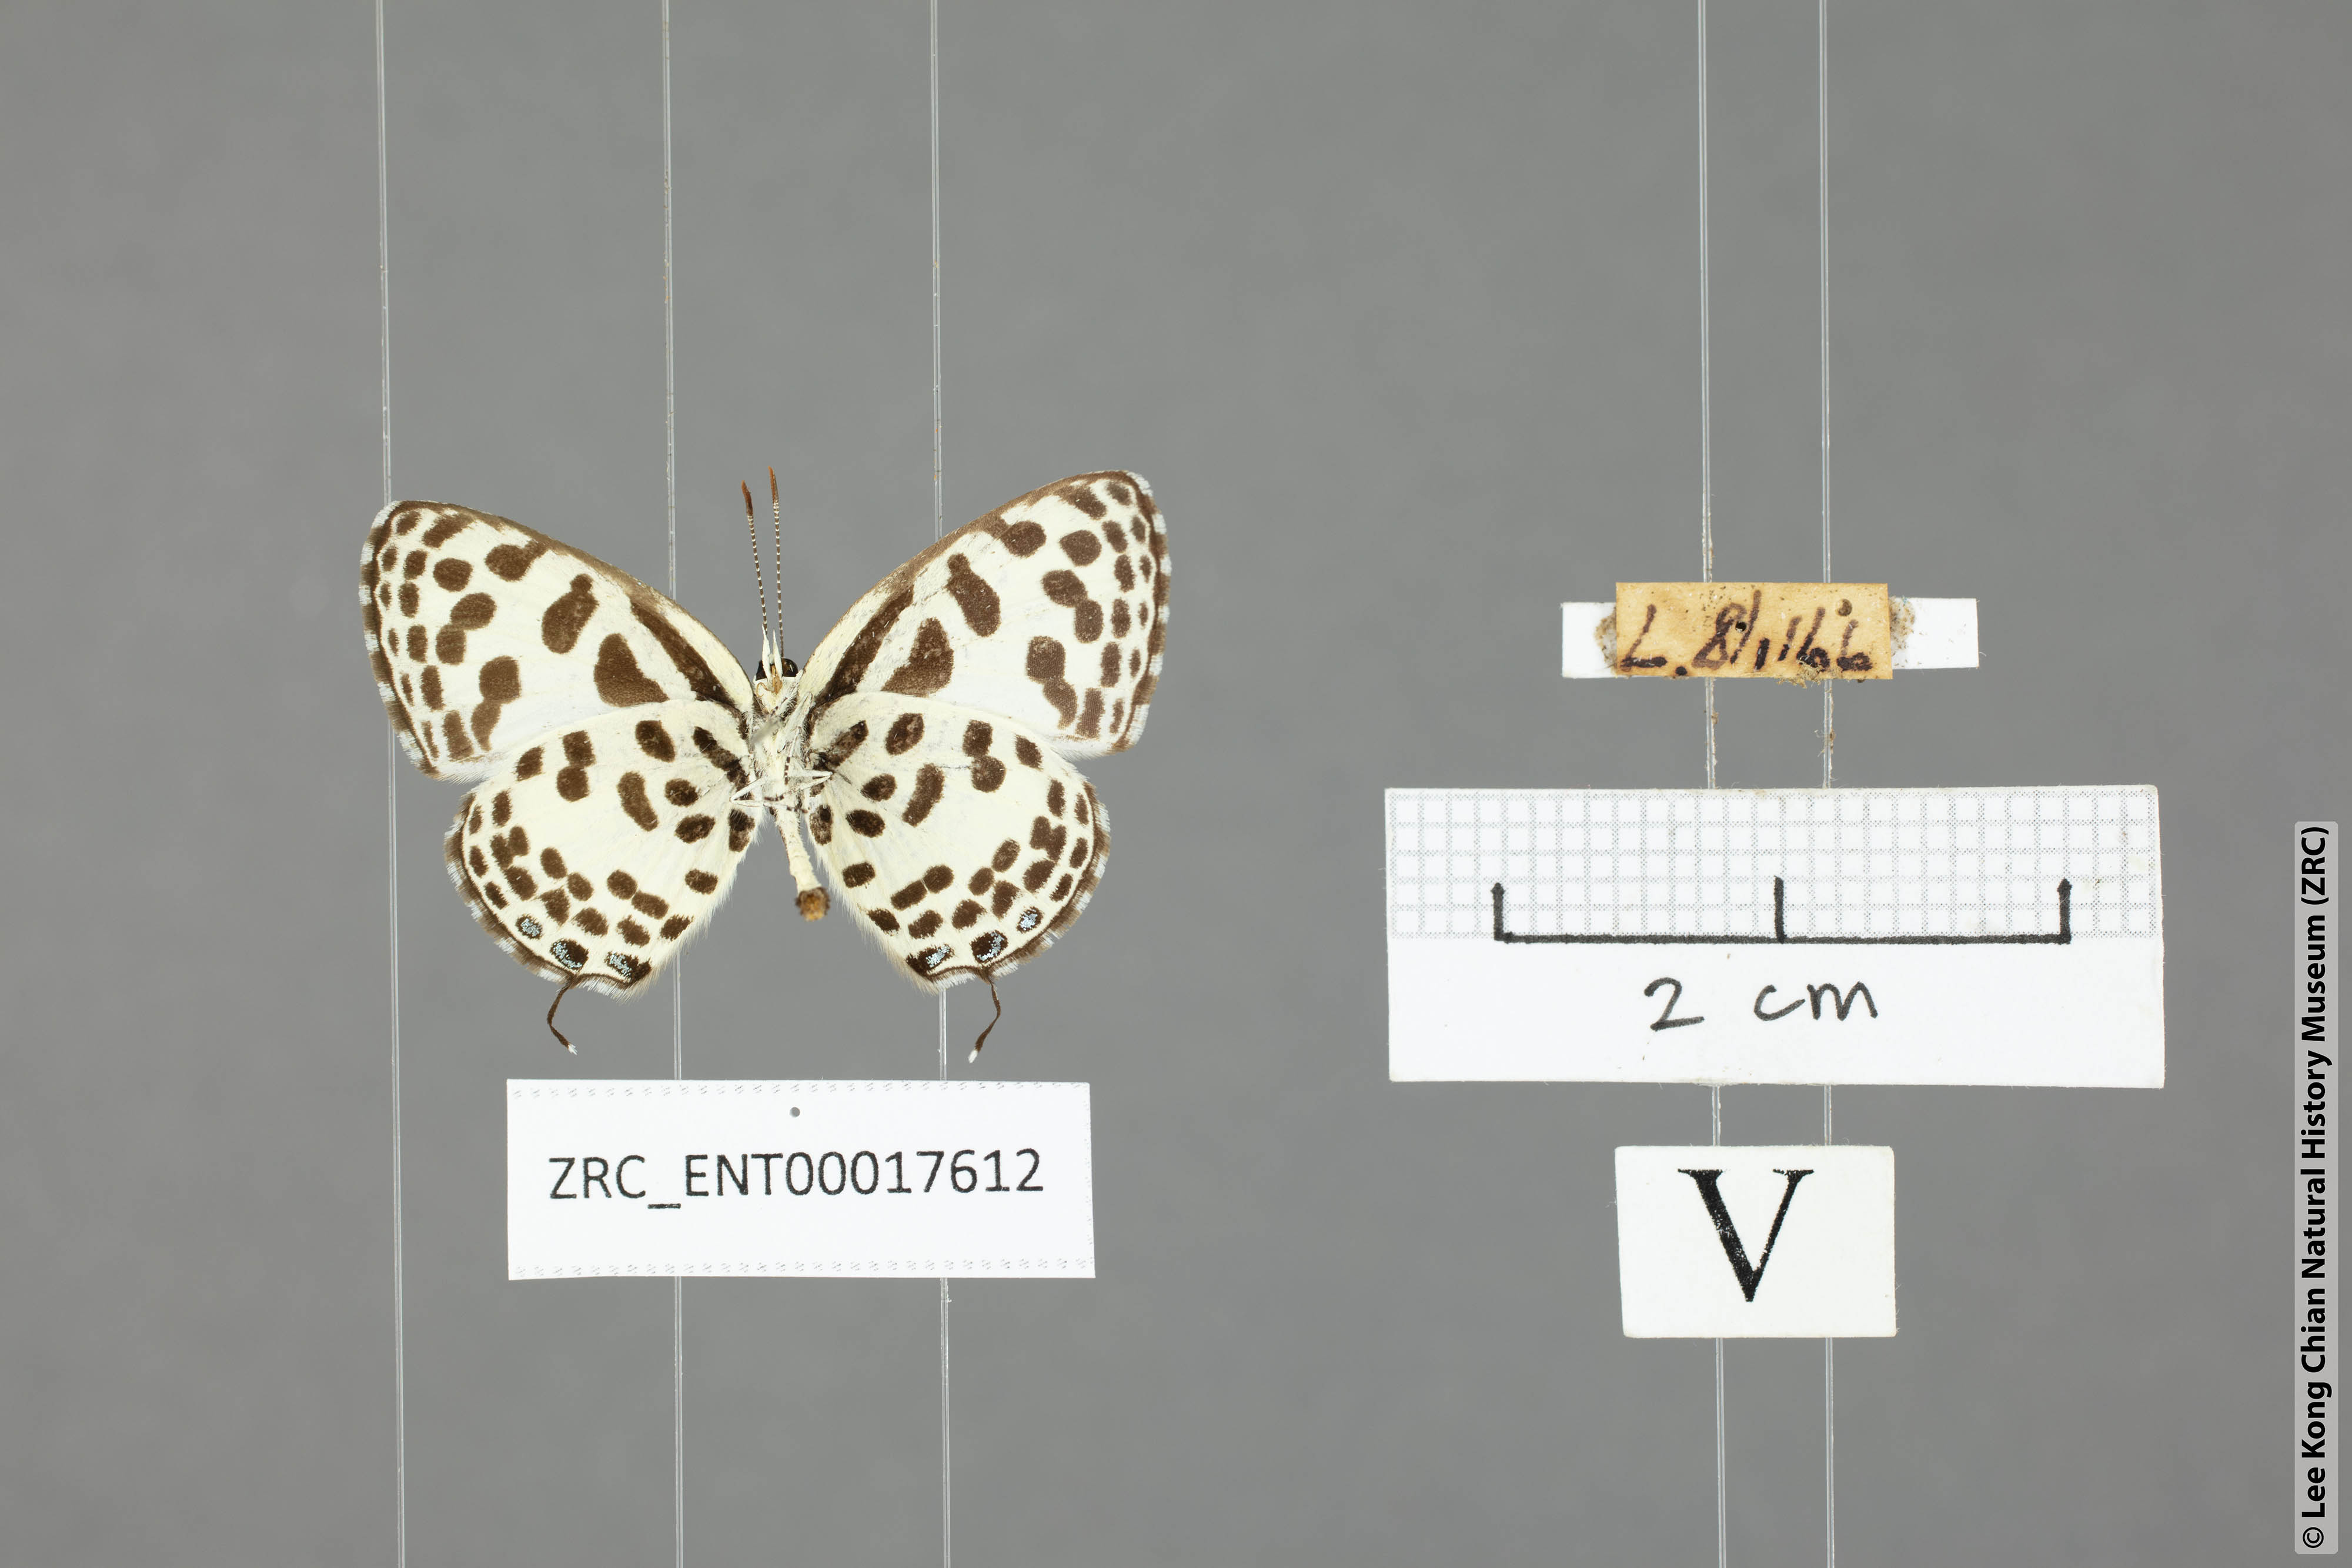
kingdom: Animalia
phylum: Arthropoda
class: Insecta
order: Lepidoptera
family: Lycaenidae
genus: Castalius
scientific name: Castalius rosimon
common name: Common pierrot
